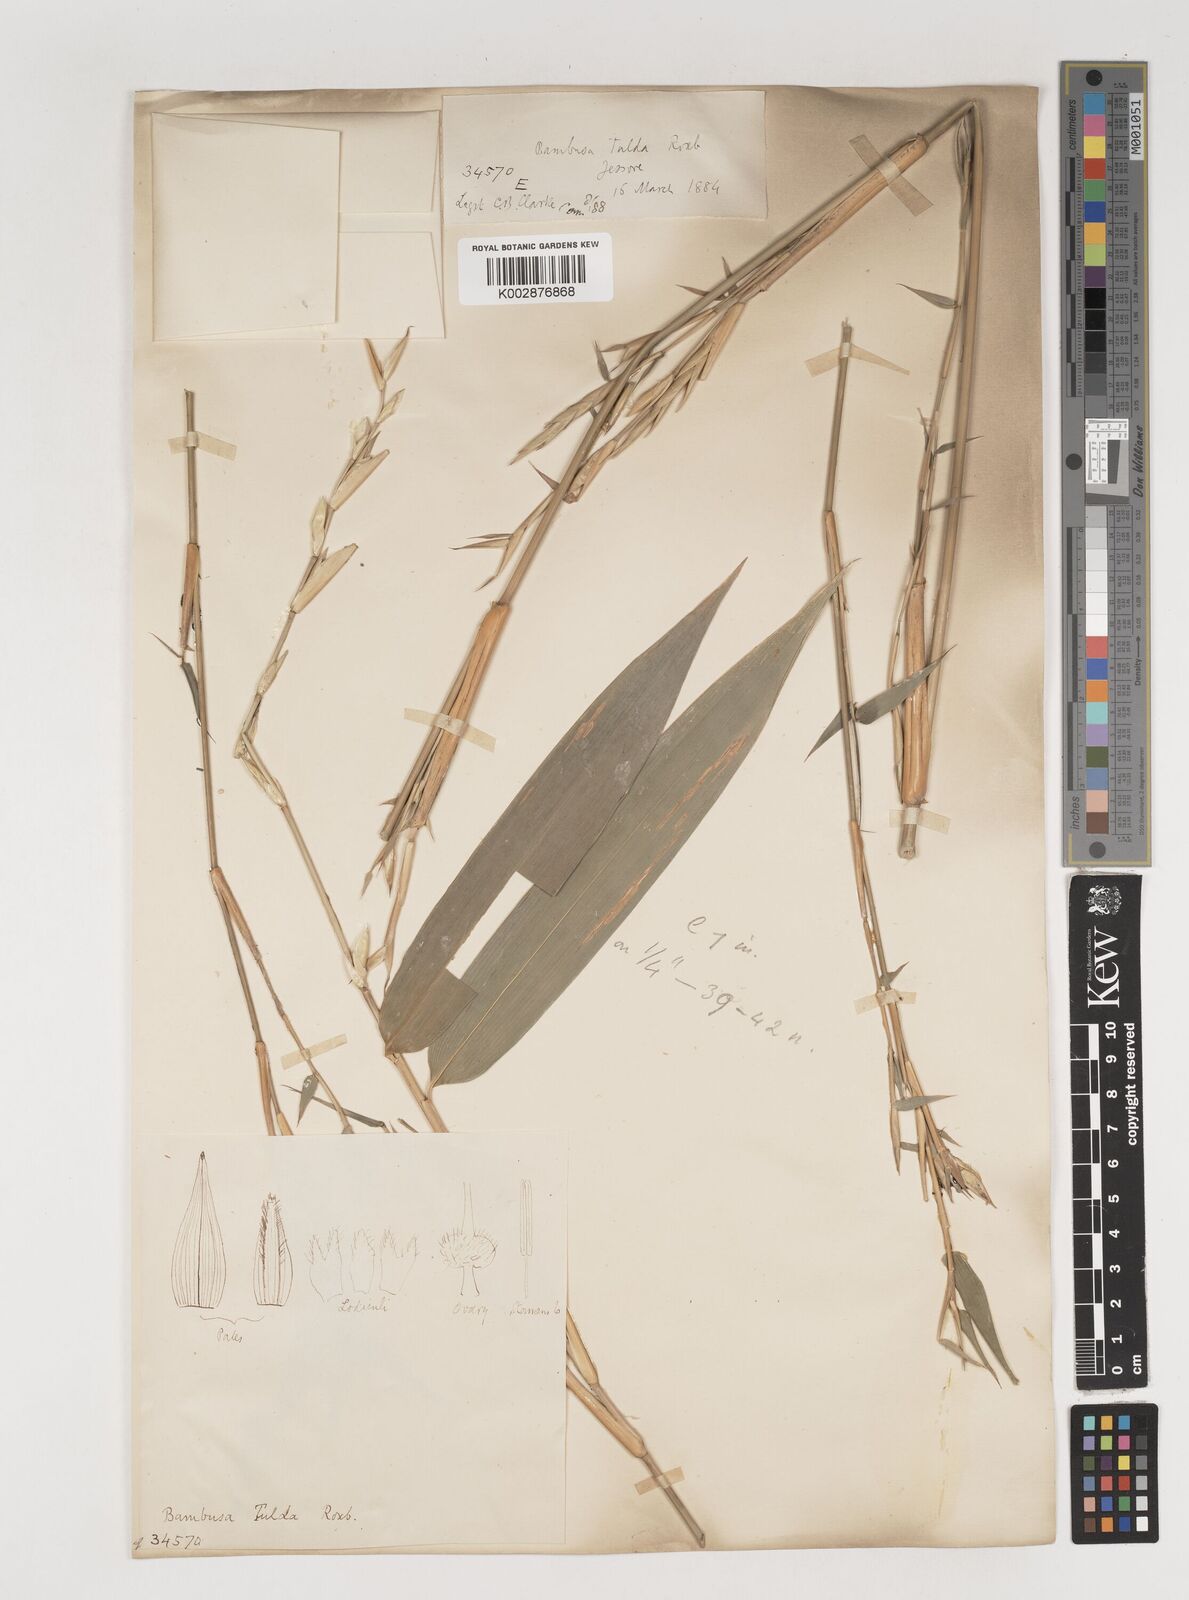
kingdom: Plantae
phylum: Tracheophyta
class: Liliopsida
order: Poales
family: Poaceae
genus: Bambusa
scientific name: Bambusa tuldoides
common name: Verdant bamboo
